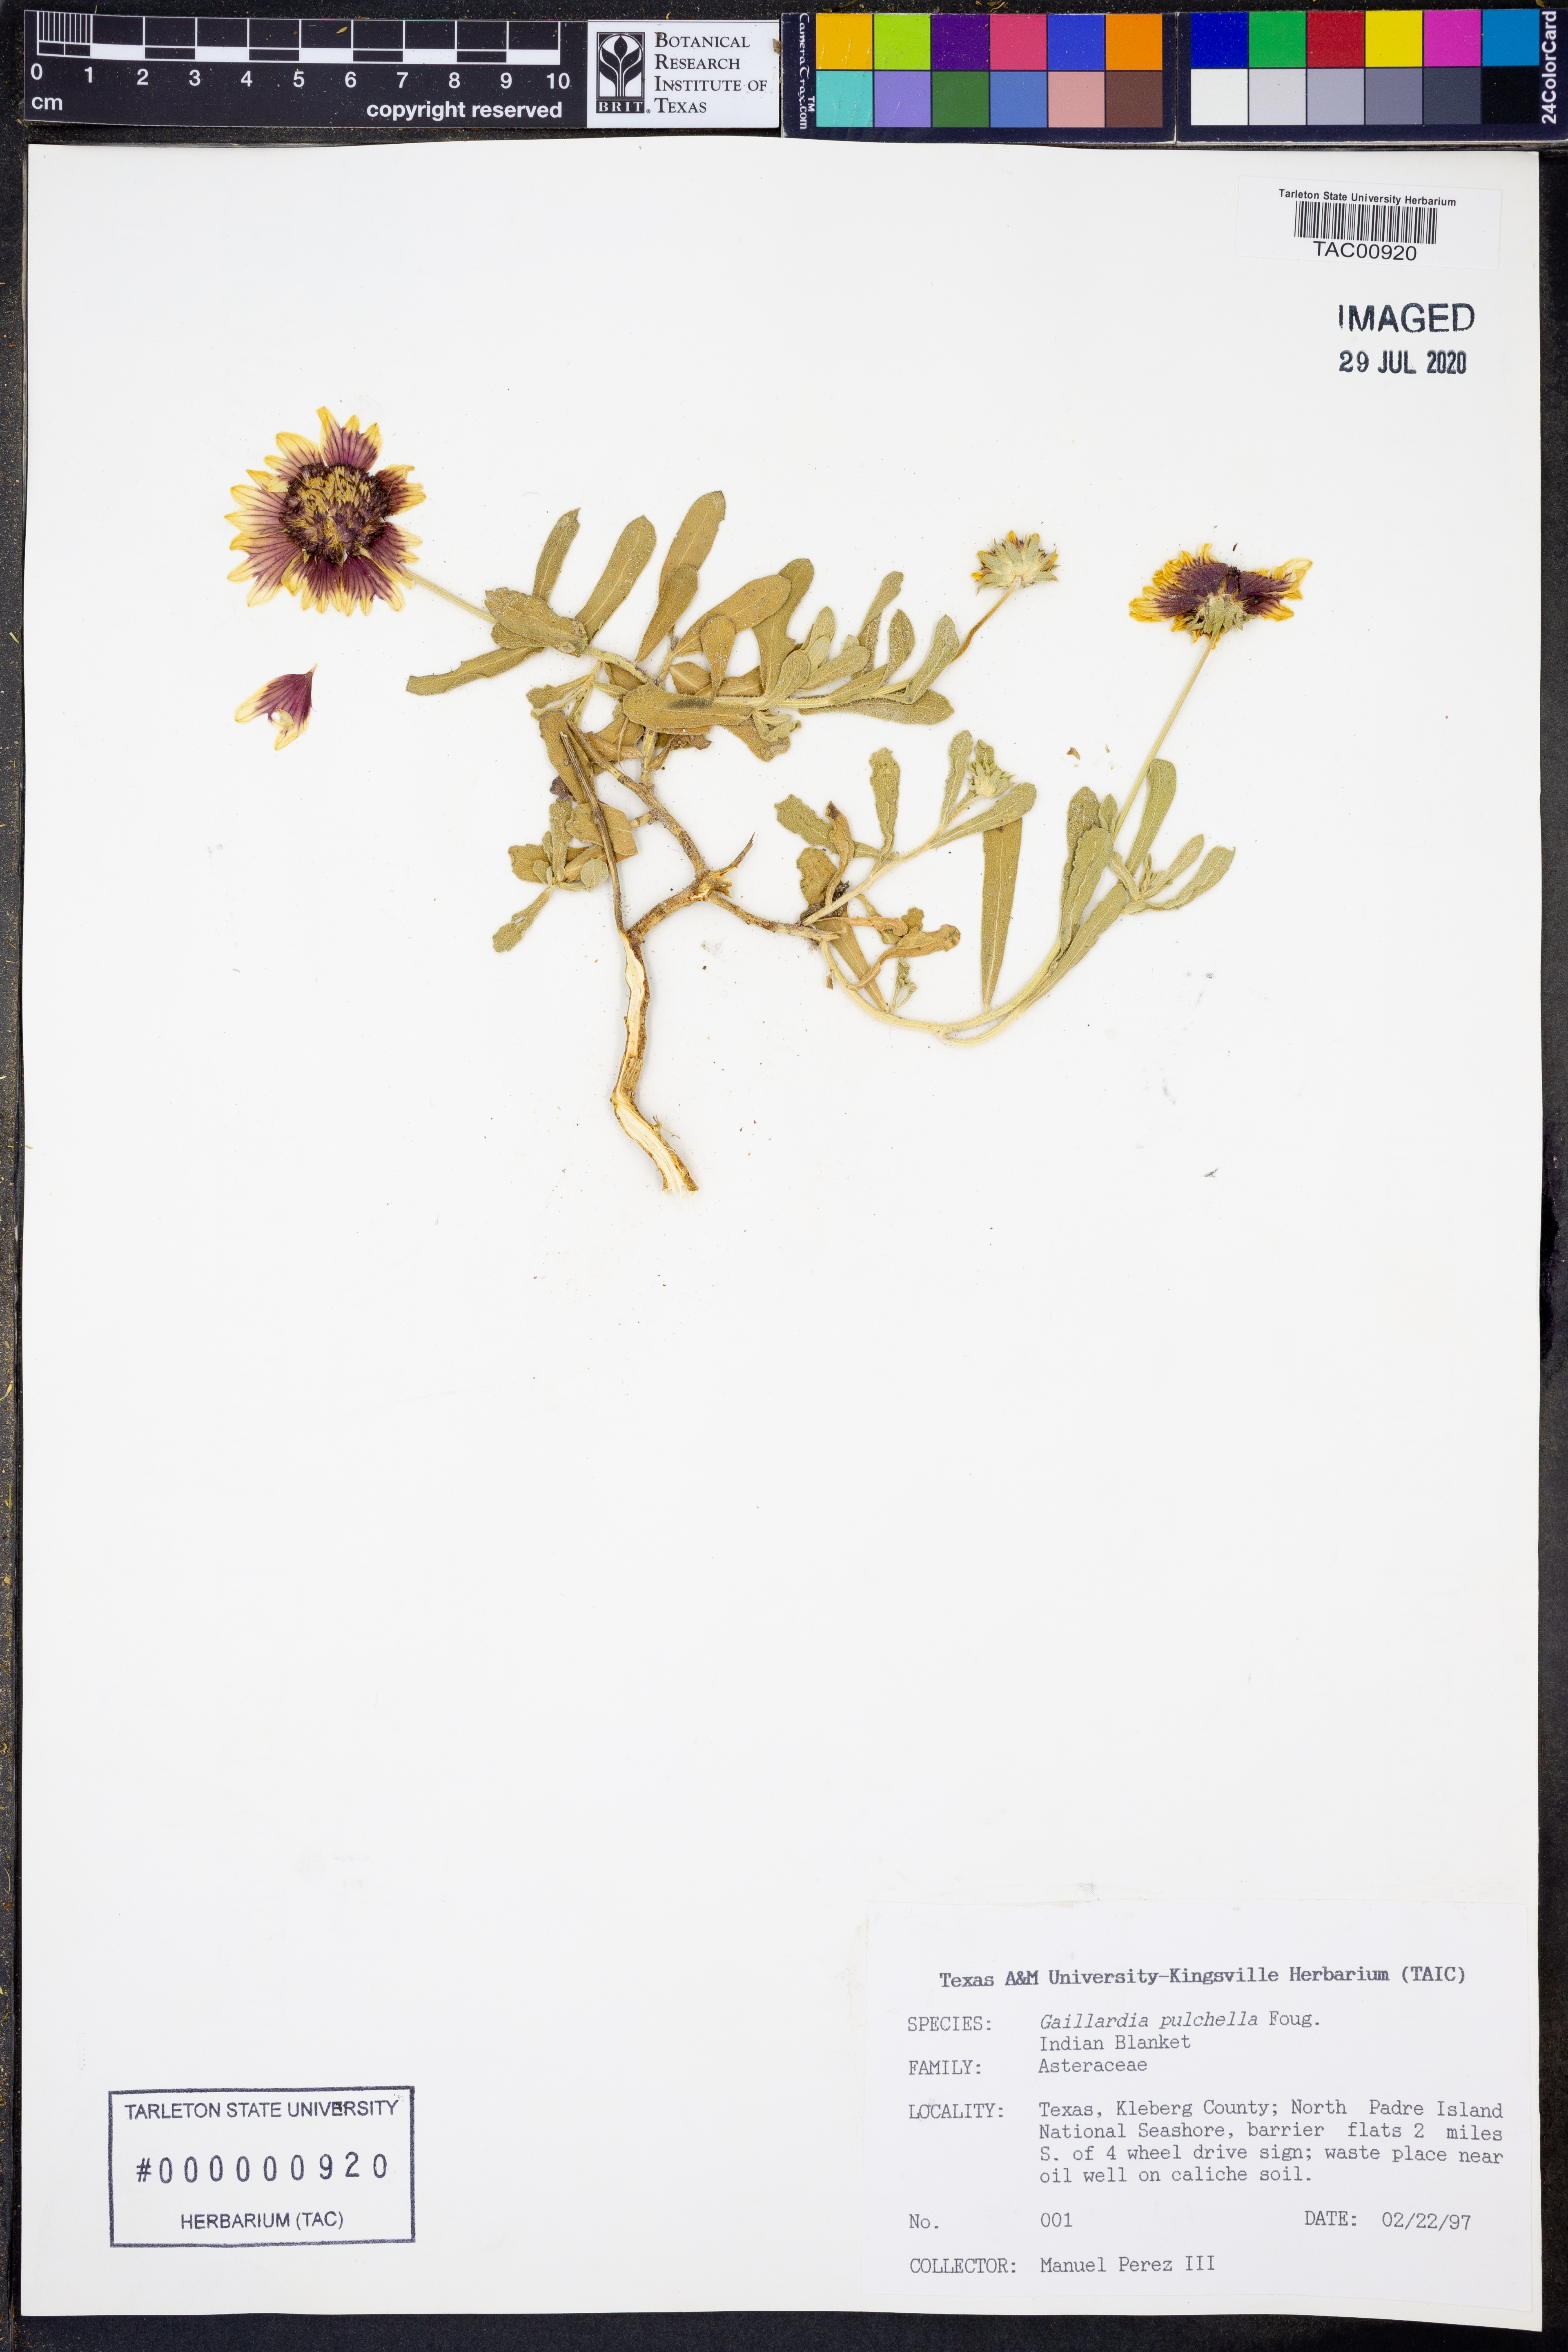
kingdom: Plantae
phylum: Tracheophyta
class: Magnoliopsida
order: Asterales
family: Asteraceae
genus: Gaillardia
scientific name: Gaillardia pulchella
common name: Firewheel
